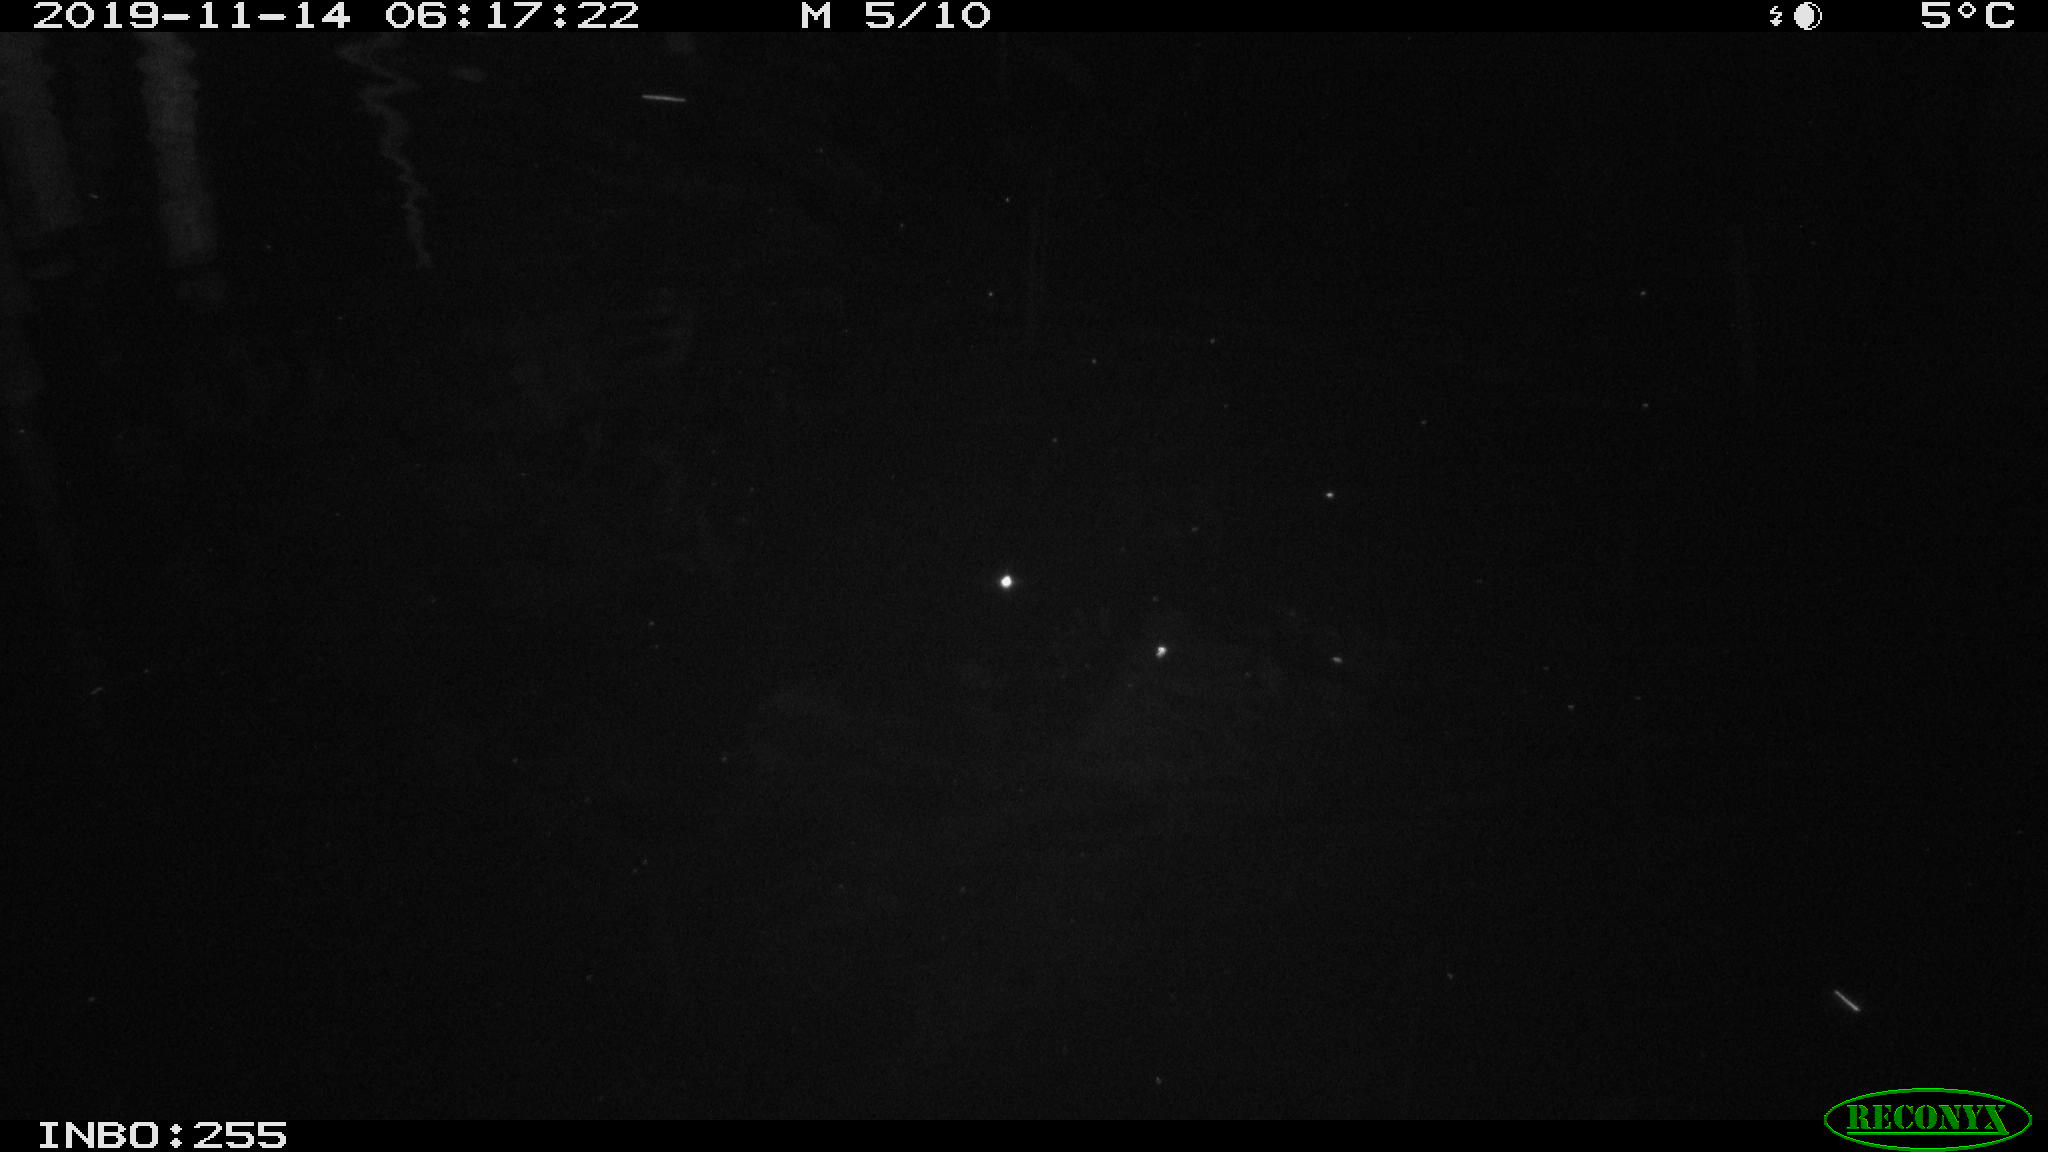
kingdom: Animalia
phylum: Chordata
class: Mammalia
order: Rodentia
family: Muridae
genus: Rattus
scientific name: Rattus norvegicus
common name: Brown rat
